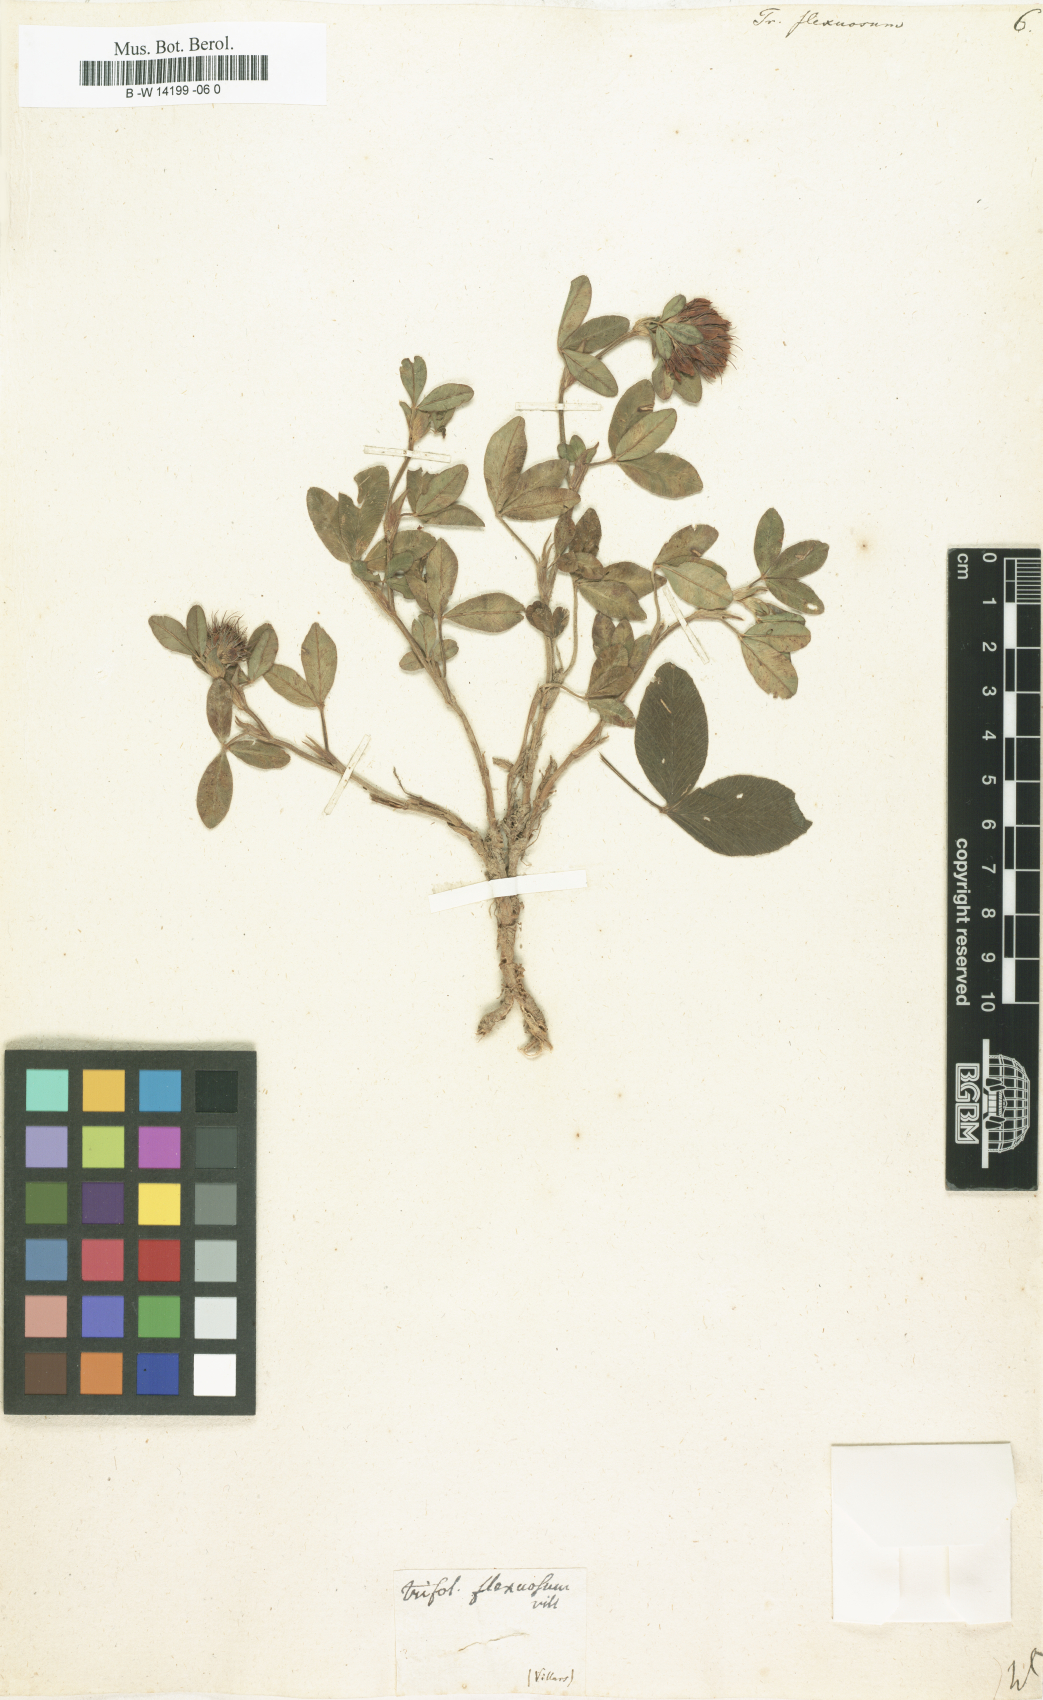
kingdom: Plantae
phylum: Tracheophyta
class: Magnoliopsida
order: Fabales
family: Fabaceae
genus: Trifolium
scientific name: Trifolium medium
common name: Zigzag clover
